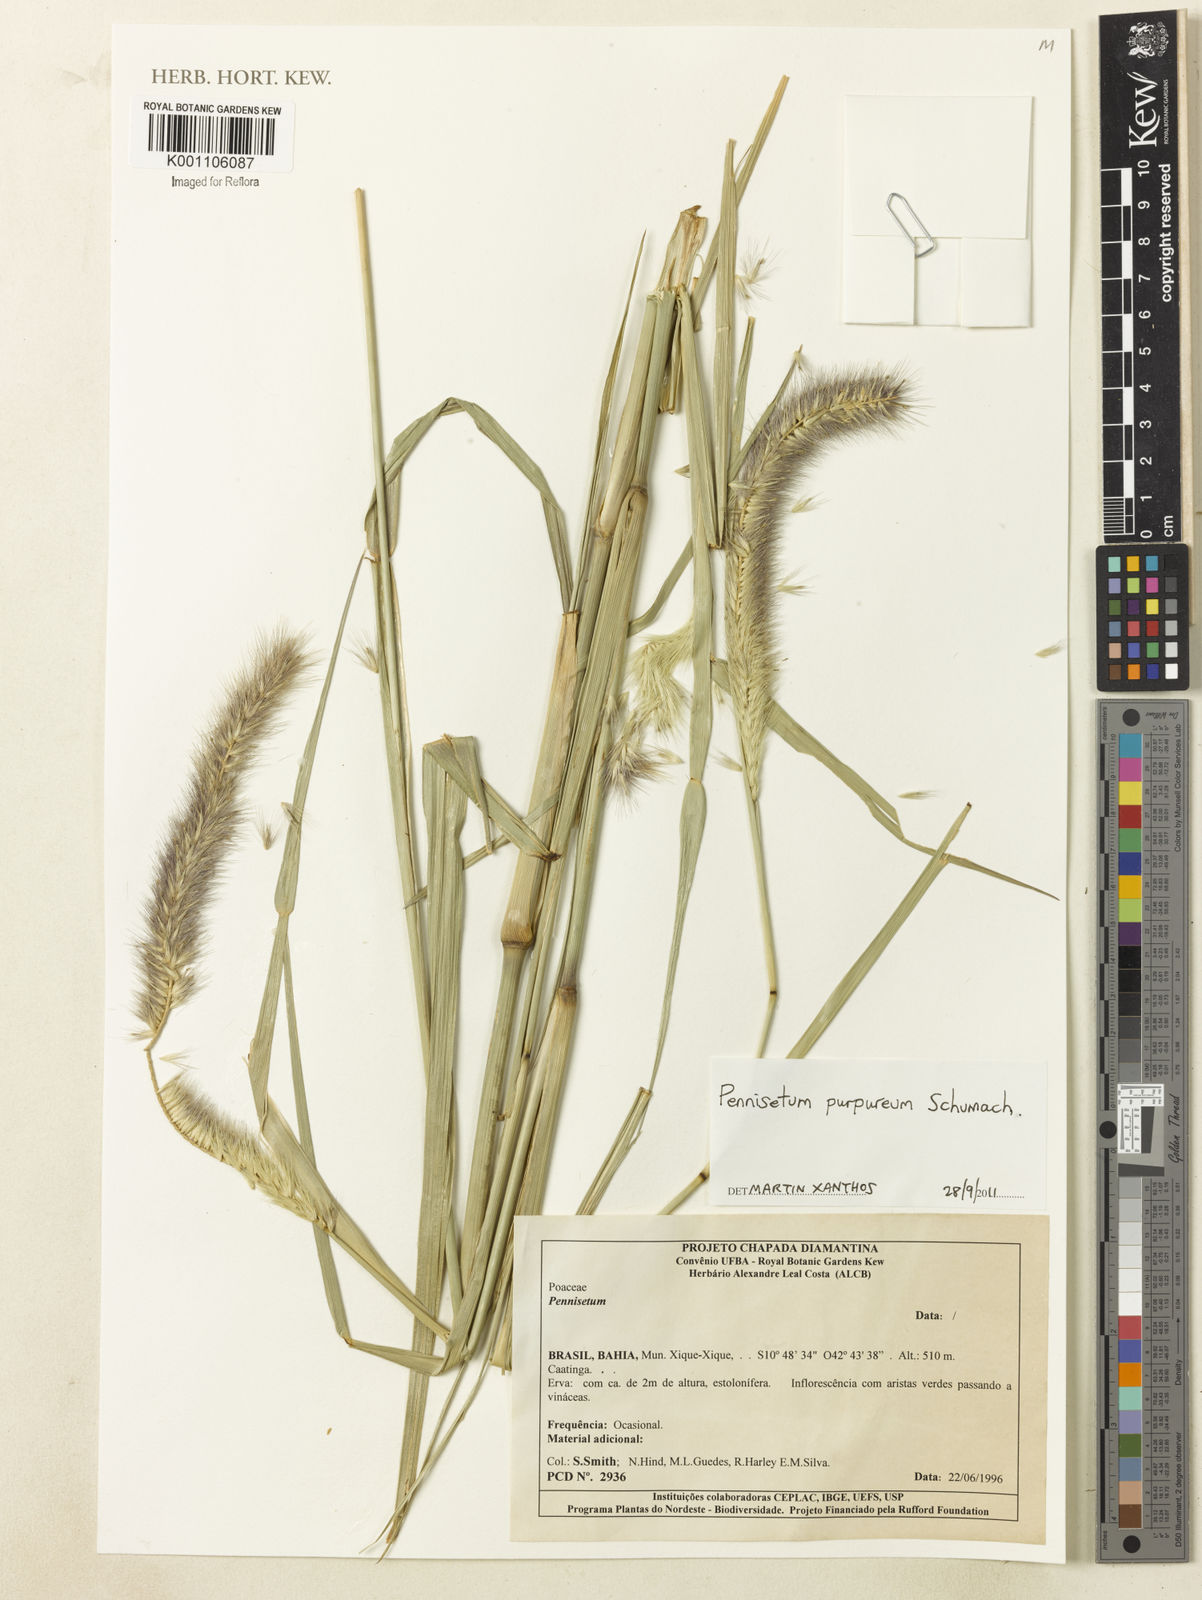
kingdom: Plantae
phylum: Tracheophyta
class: Liliopsida
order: Poales
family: Poaceae
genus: Cenchrus
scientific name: Cenchrus purpureus
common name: Elephant grass
